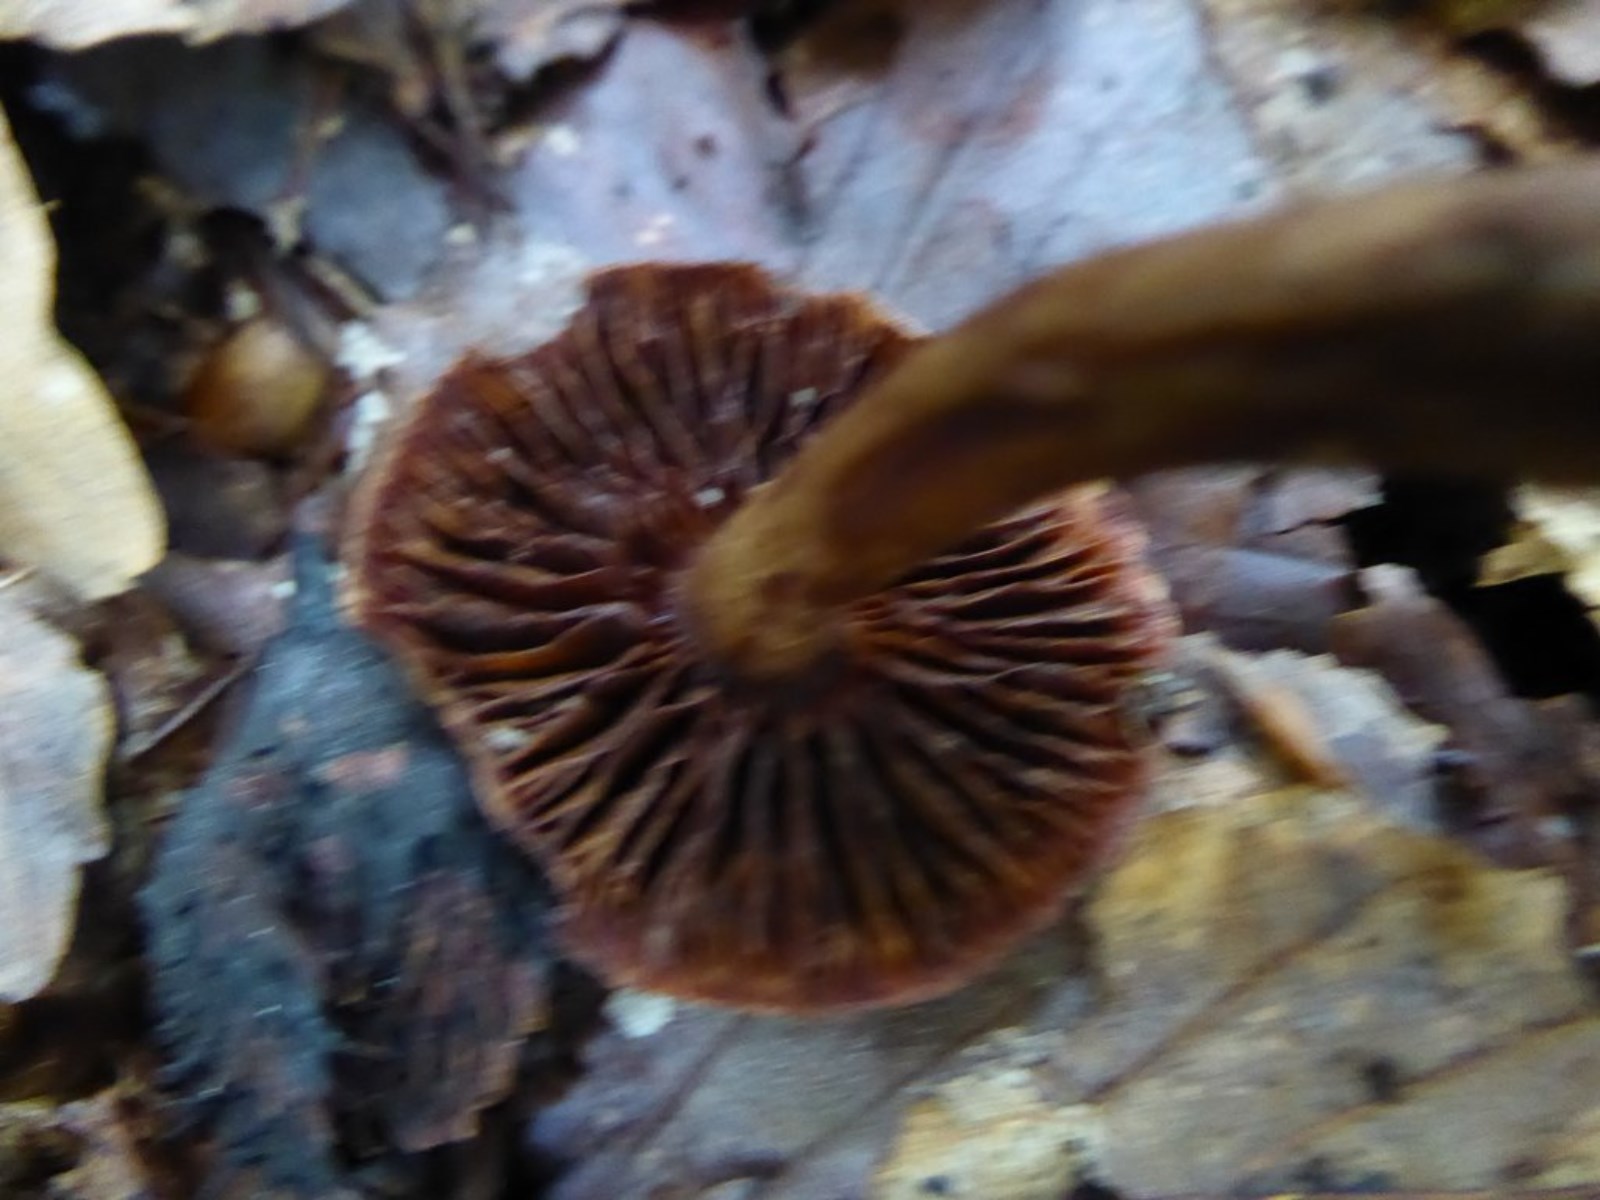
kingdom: Fungi
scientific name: Fungi
